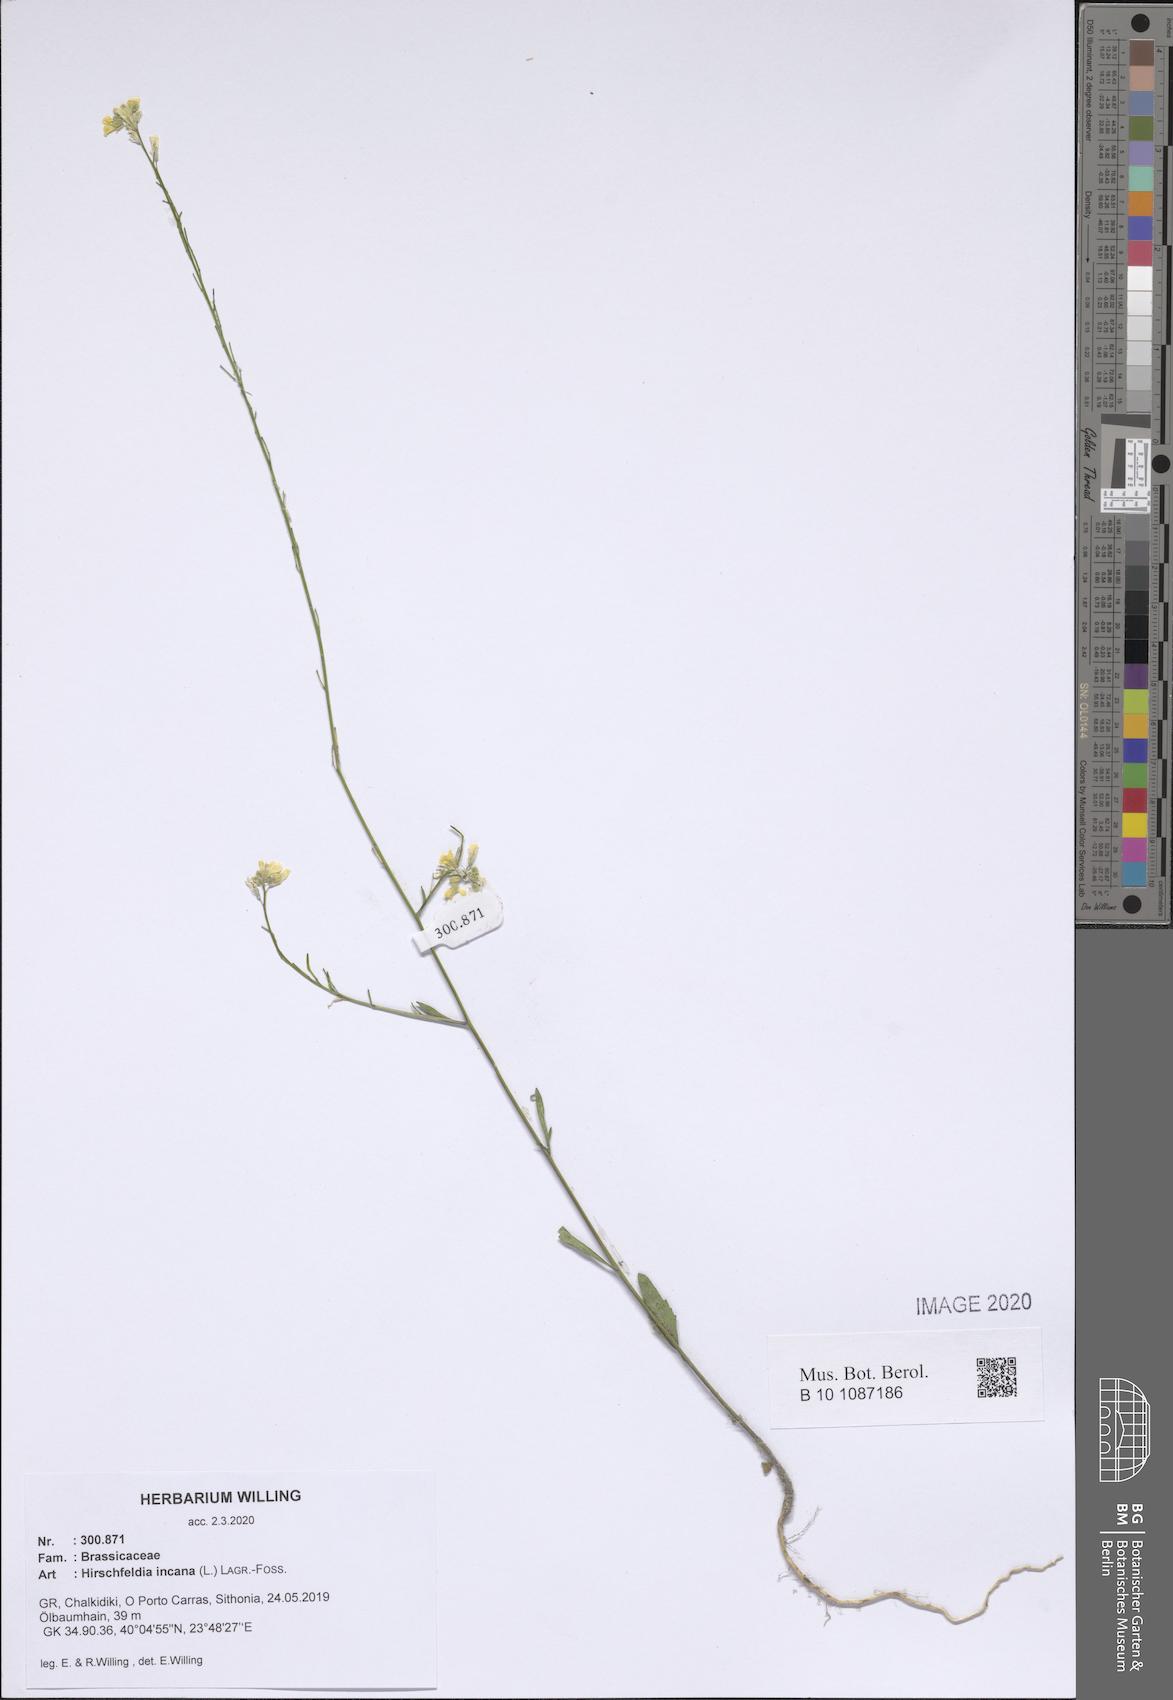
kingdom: Plantae
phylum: Tracheophyta
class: Magnoliopsida
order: Brassicales
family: Brassicaceae
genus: Hirschfeldia
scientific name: Hirschfeldia incana
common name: Hoary mustard
